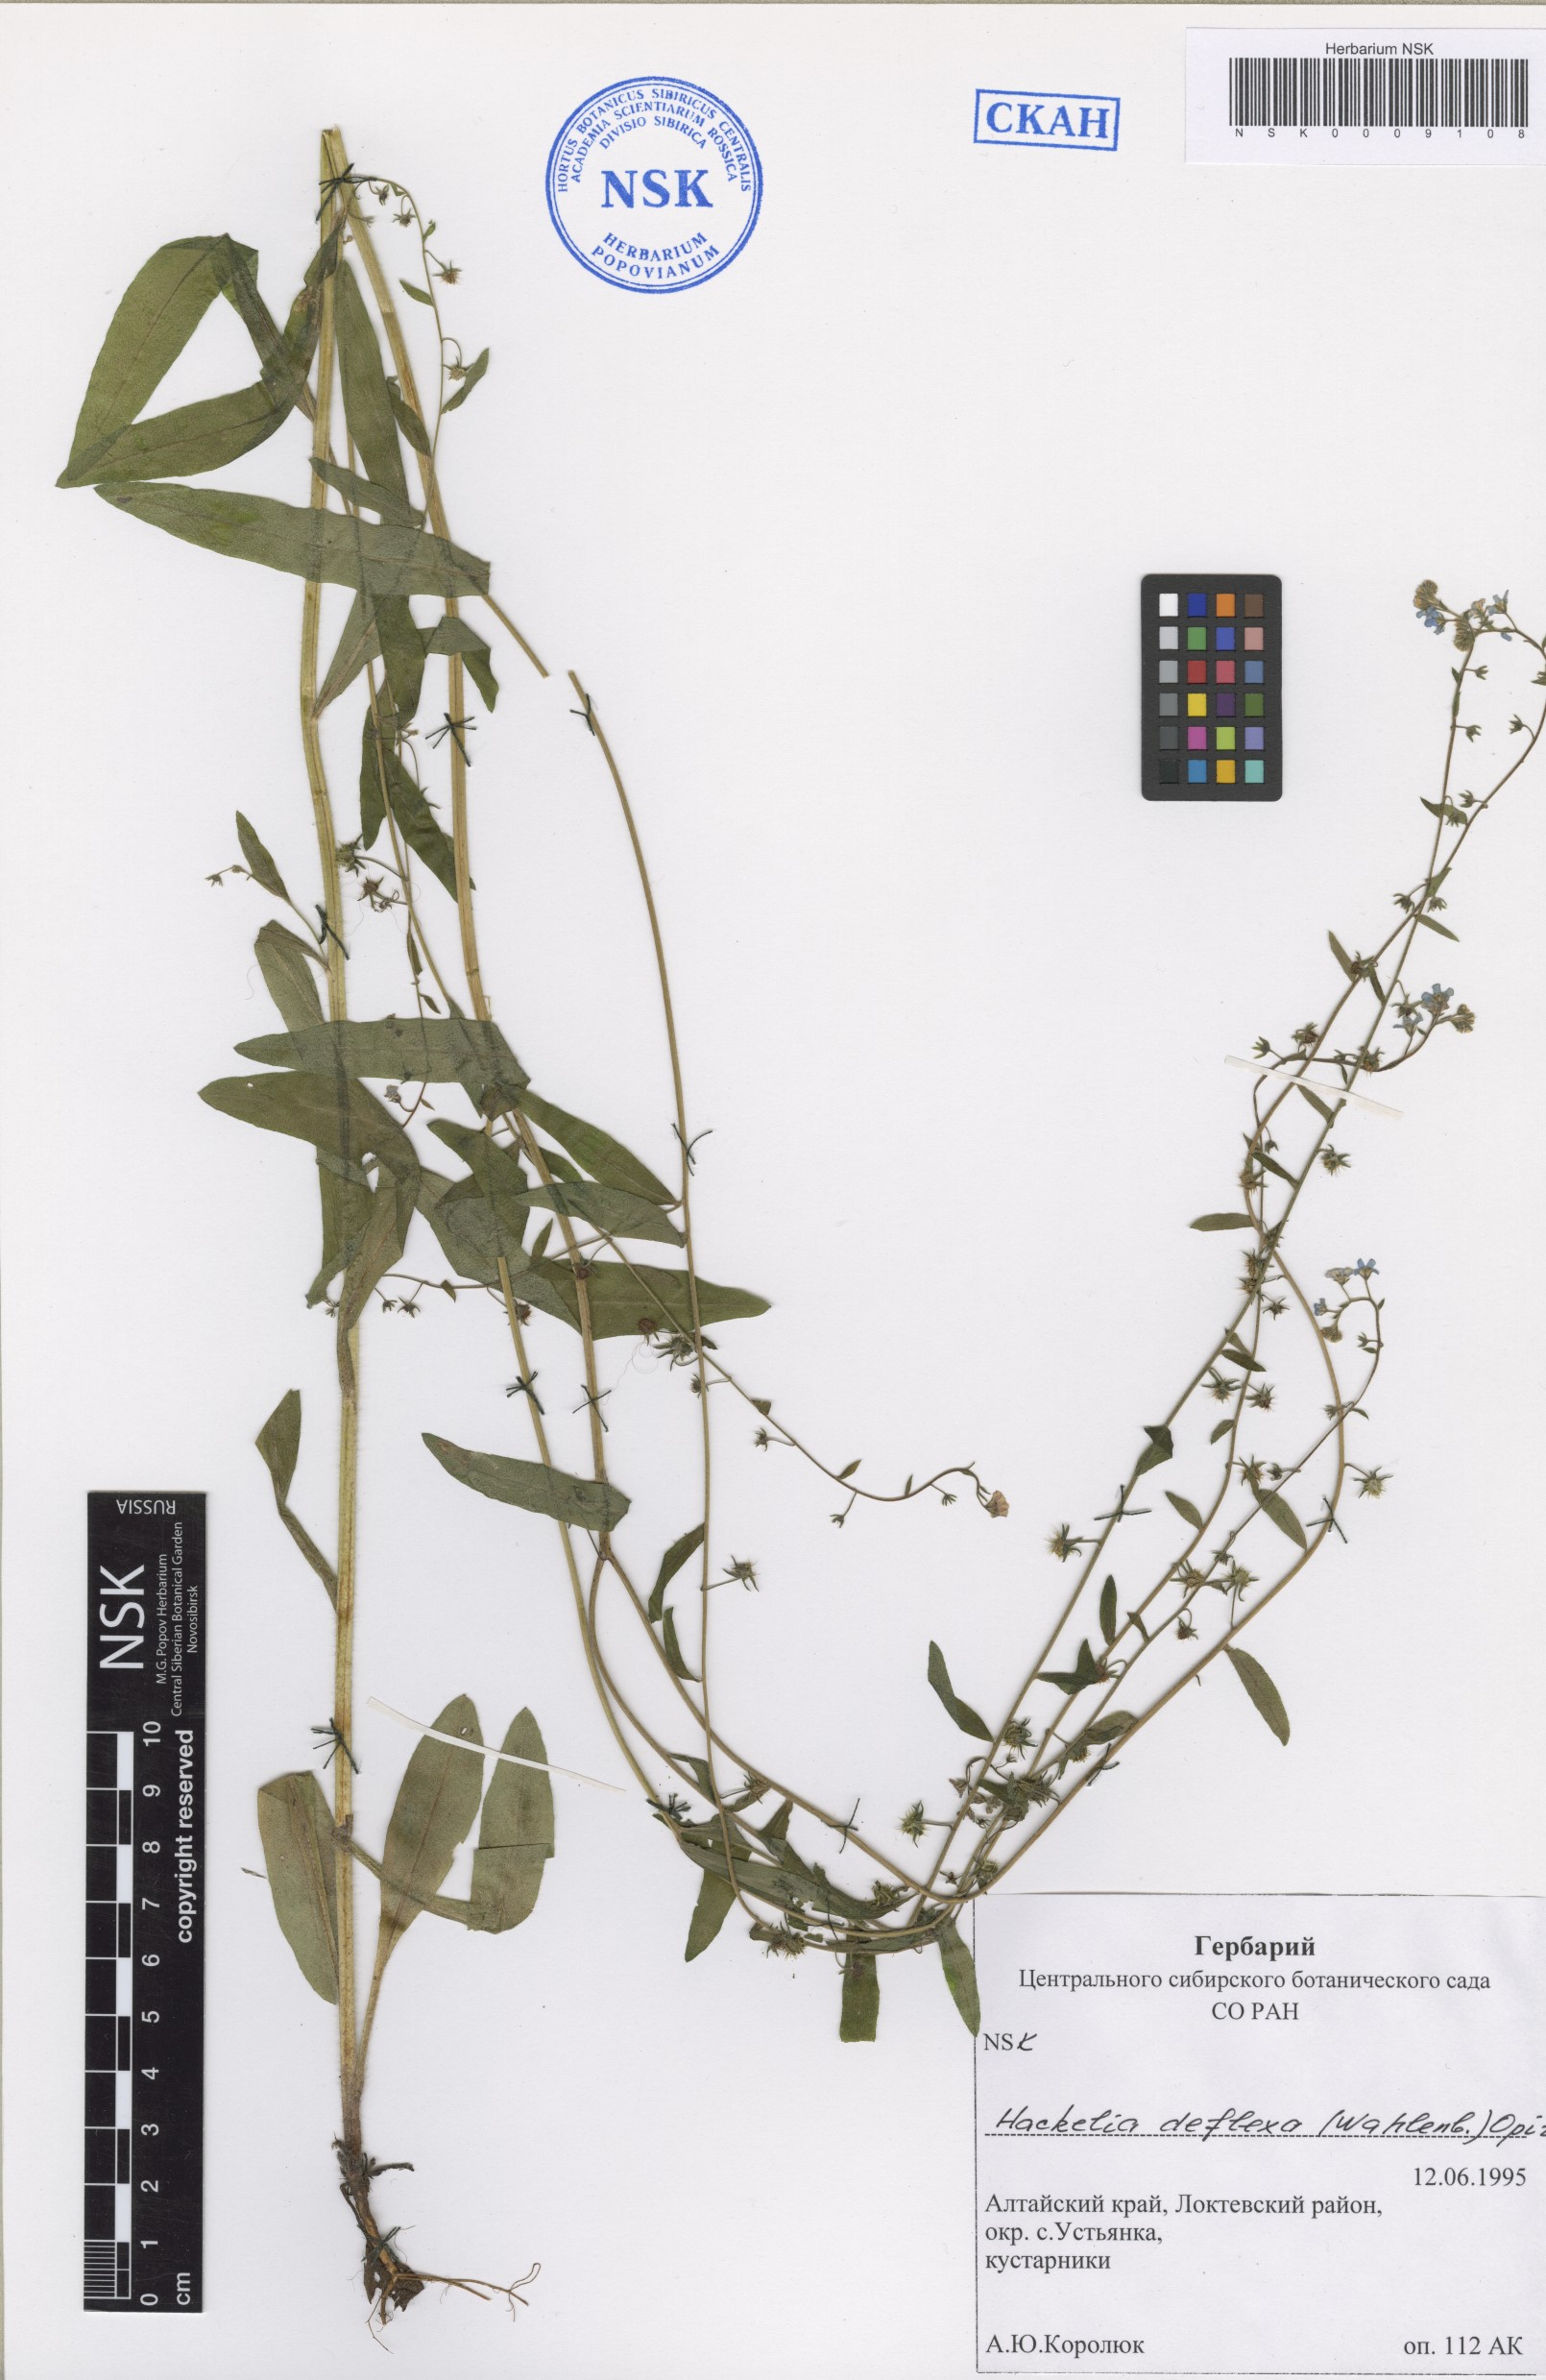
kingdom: Plantae
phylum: Tracheophyta
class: Magnoliopsida
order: Boraginales
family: Boraginaceae
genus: Hackelia
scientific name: Hackelia deflexa
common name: Nodding stickseed
